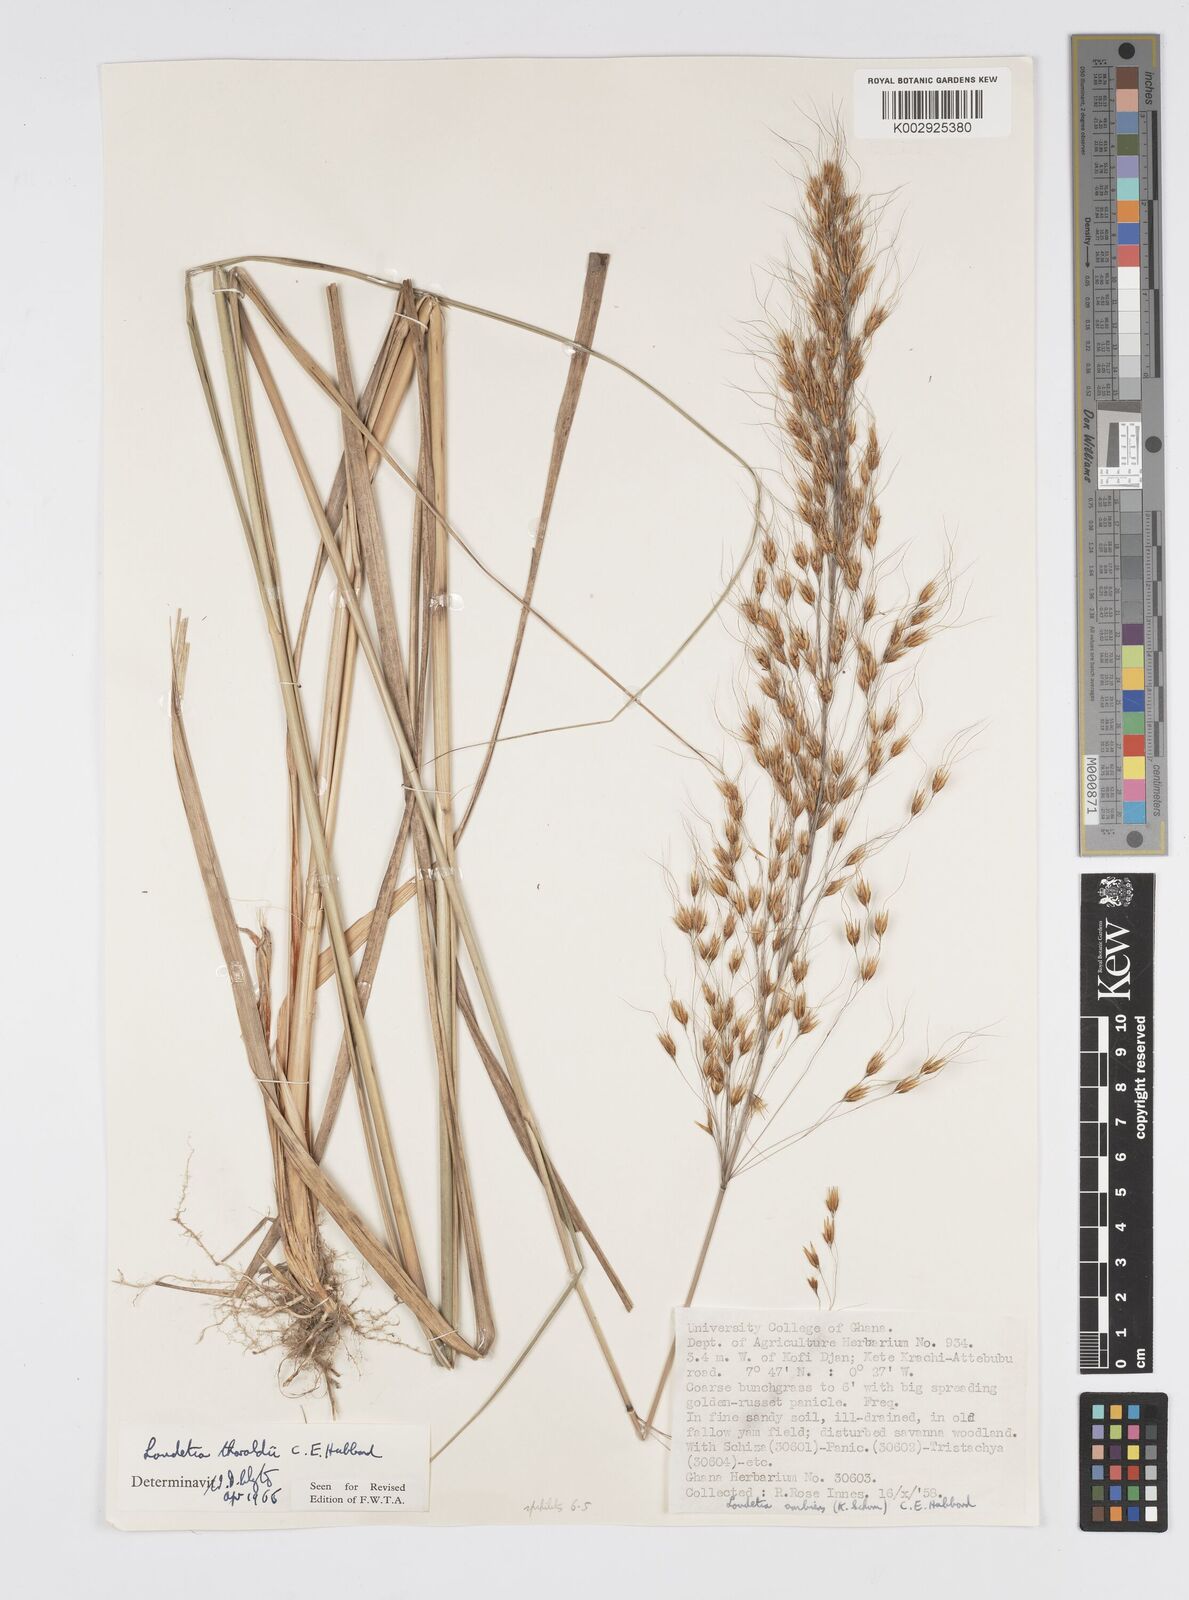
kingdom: Plantae
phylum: Tracheophyta
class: Liliopsida
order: Poales
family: Poaceae
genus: Loudetiopsis
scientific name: Loudetiopsis thoroldii
